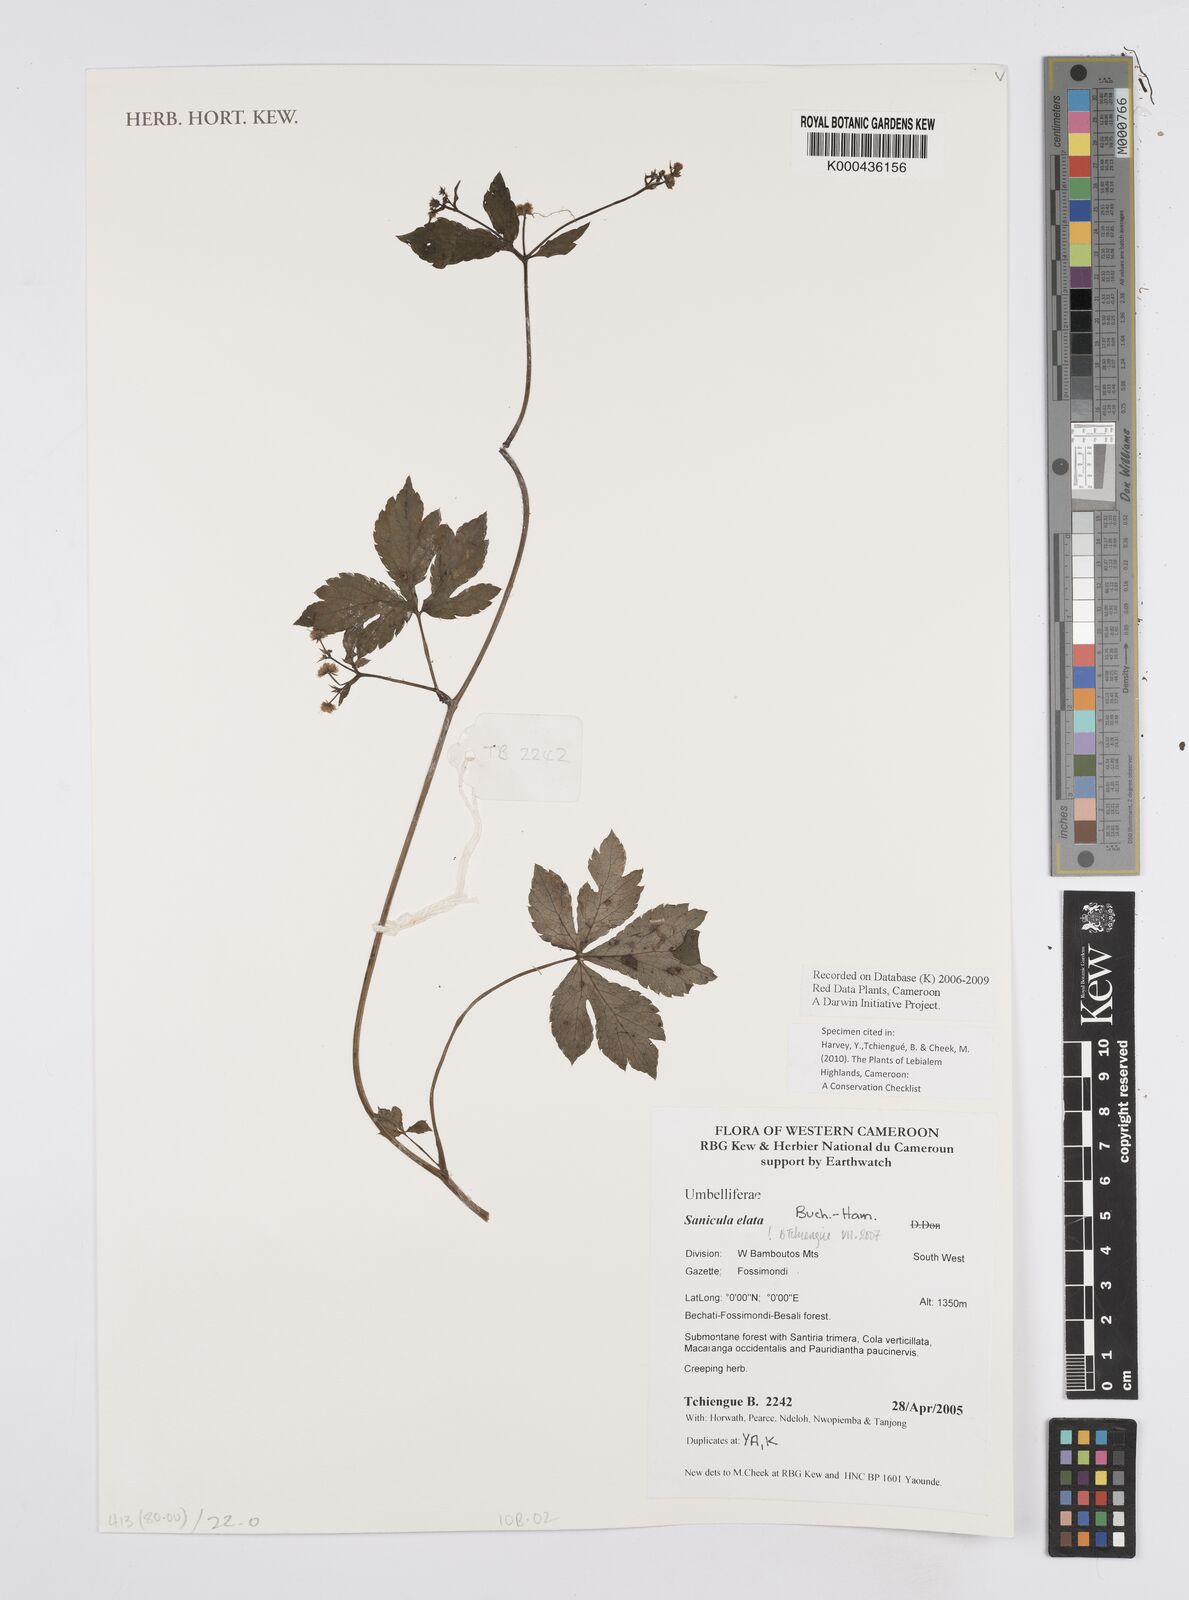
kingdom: Plantae
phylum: Tracheophyta
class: Magnoliopsida
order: Apiales
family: Apiaceae
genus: Sanicula
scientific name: Sanicula
